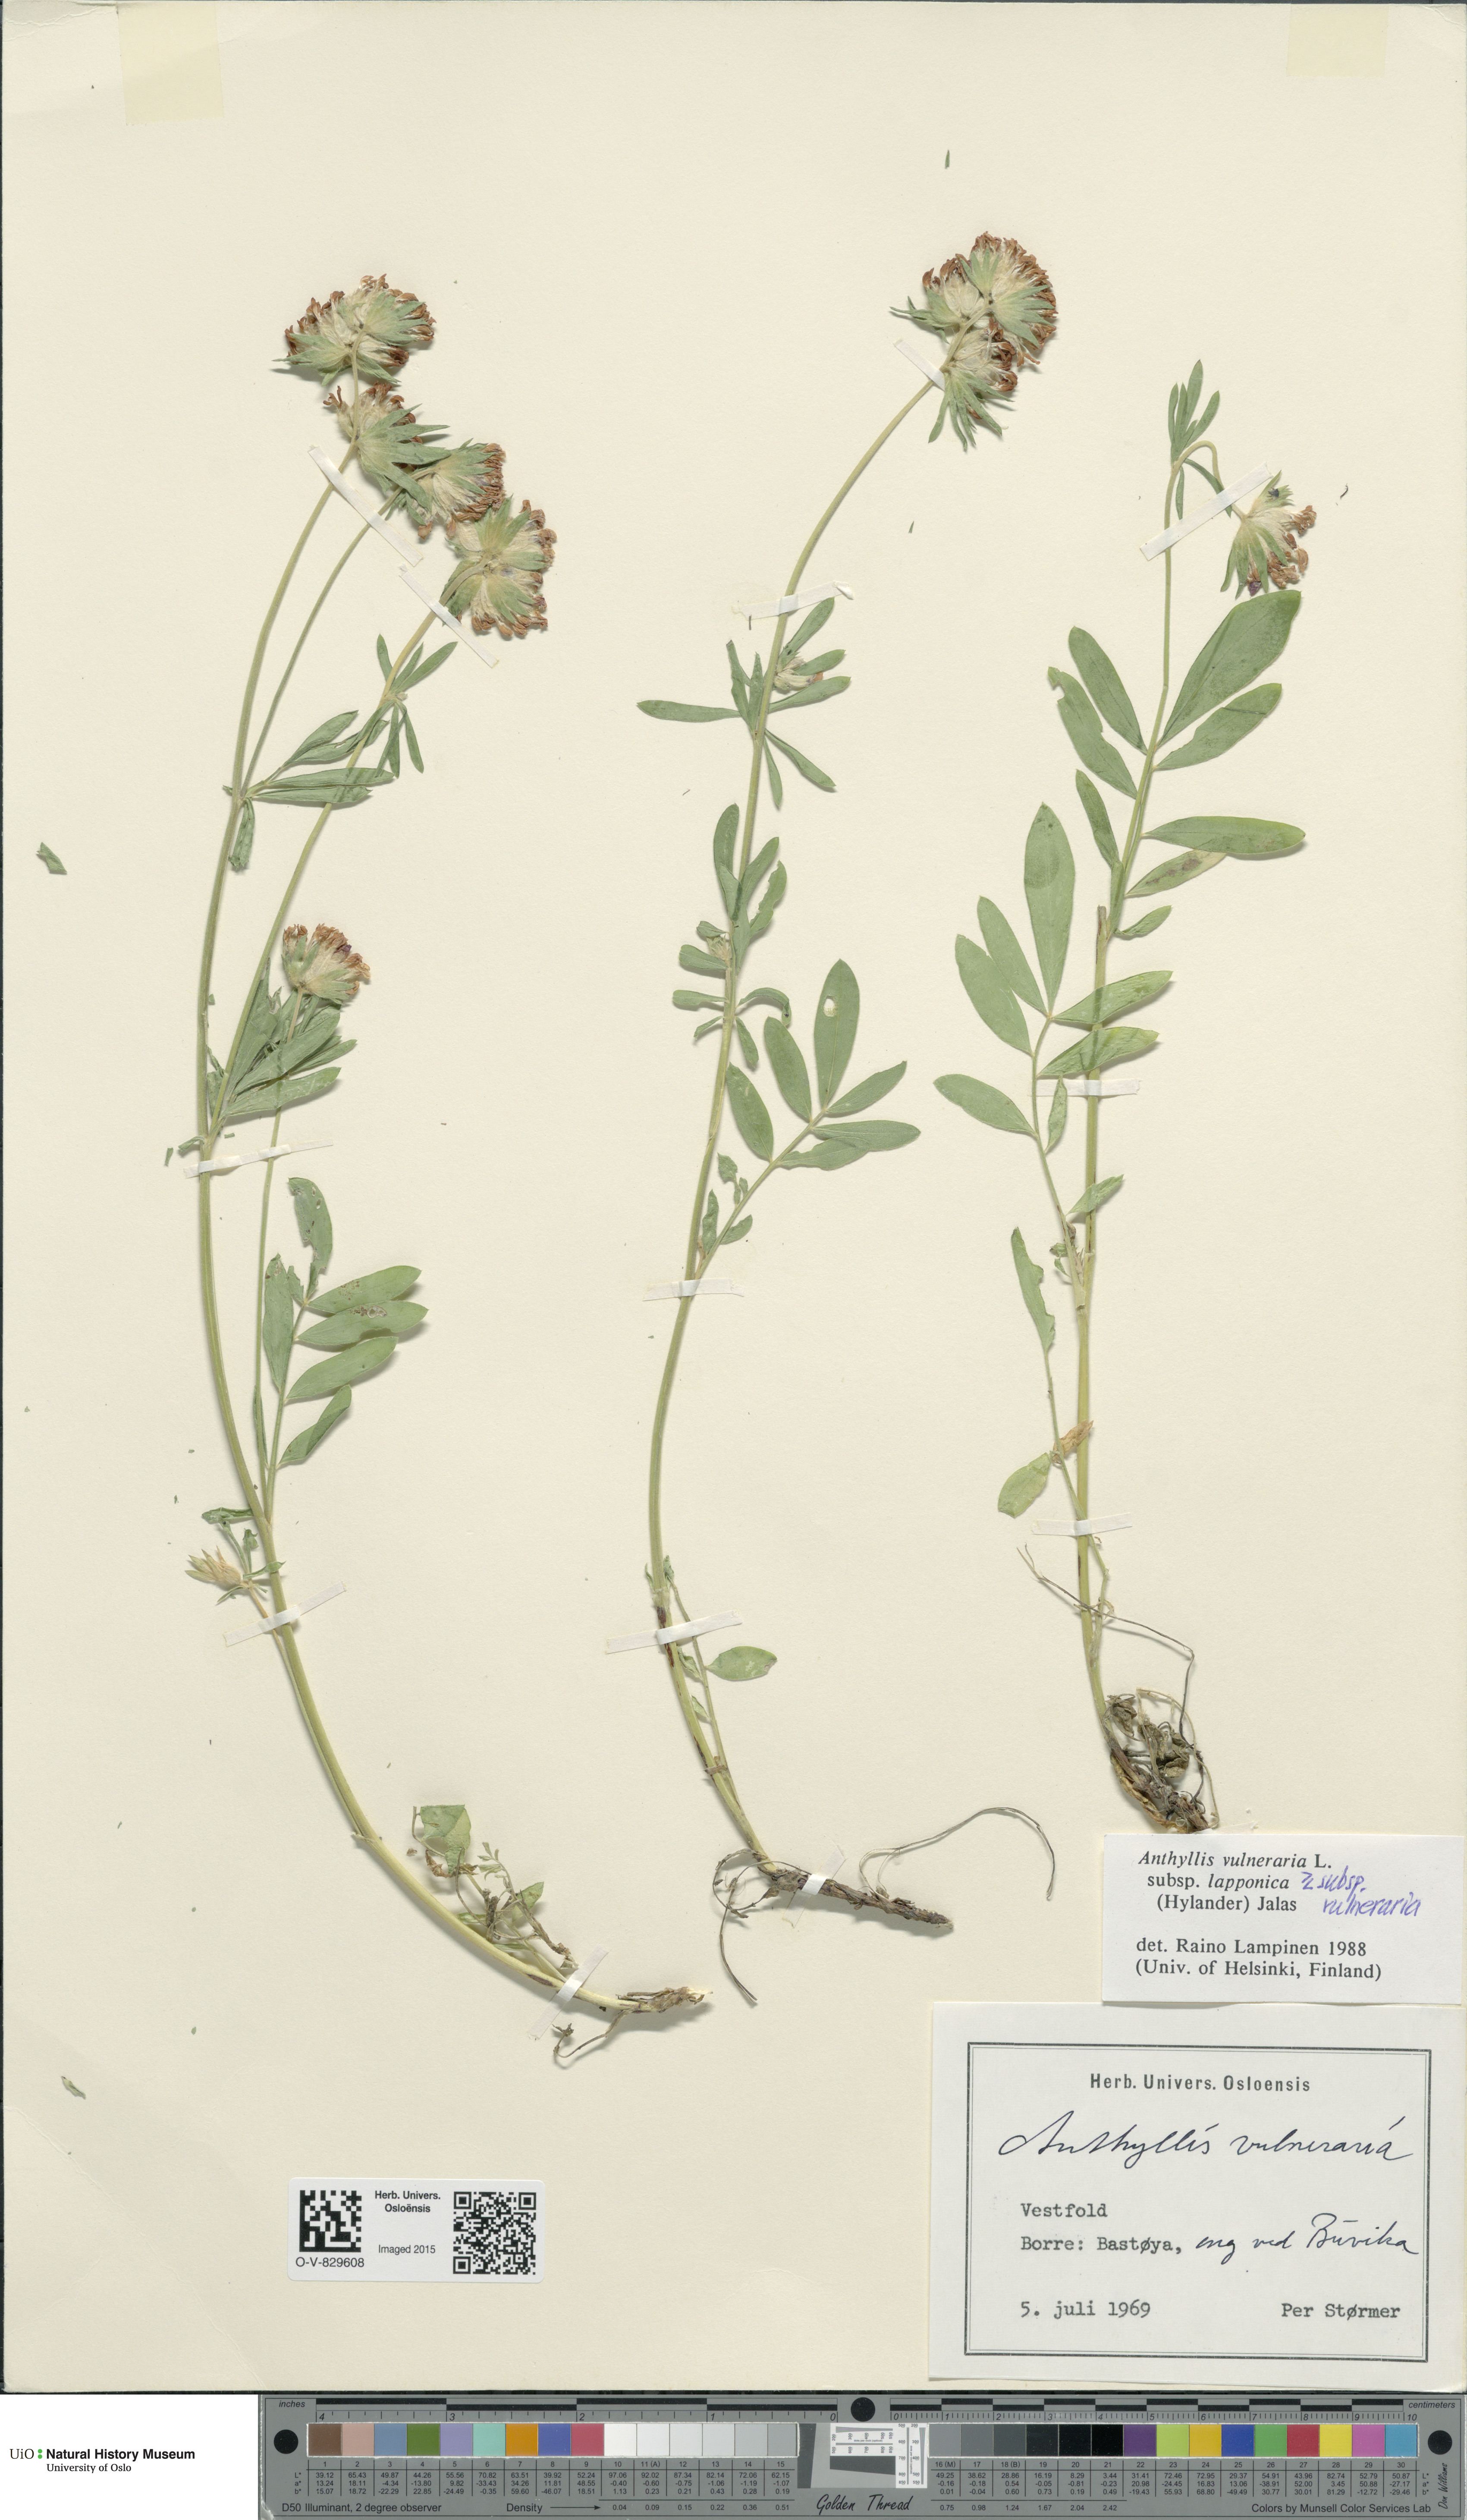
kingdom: Plantae
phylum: Tracheophyta
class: Magnoliopsida
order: Fabales
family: Fabaceae
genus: Anthyllis
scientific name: Anthyllis
